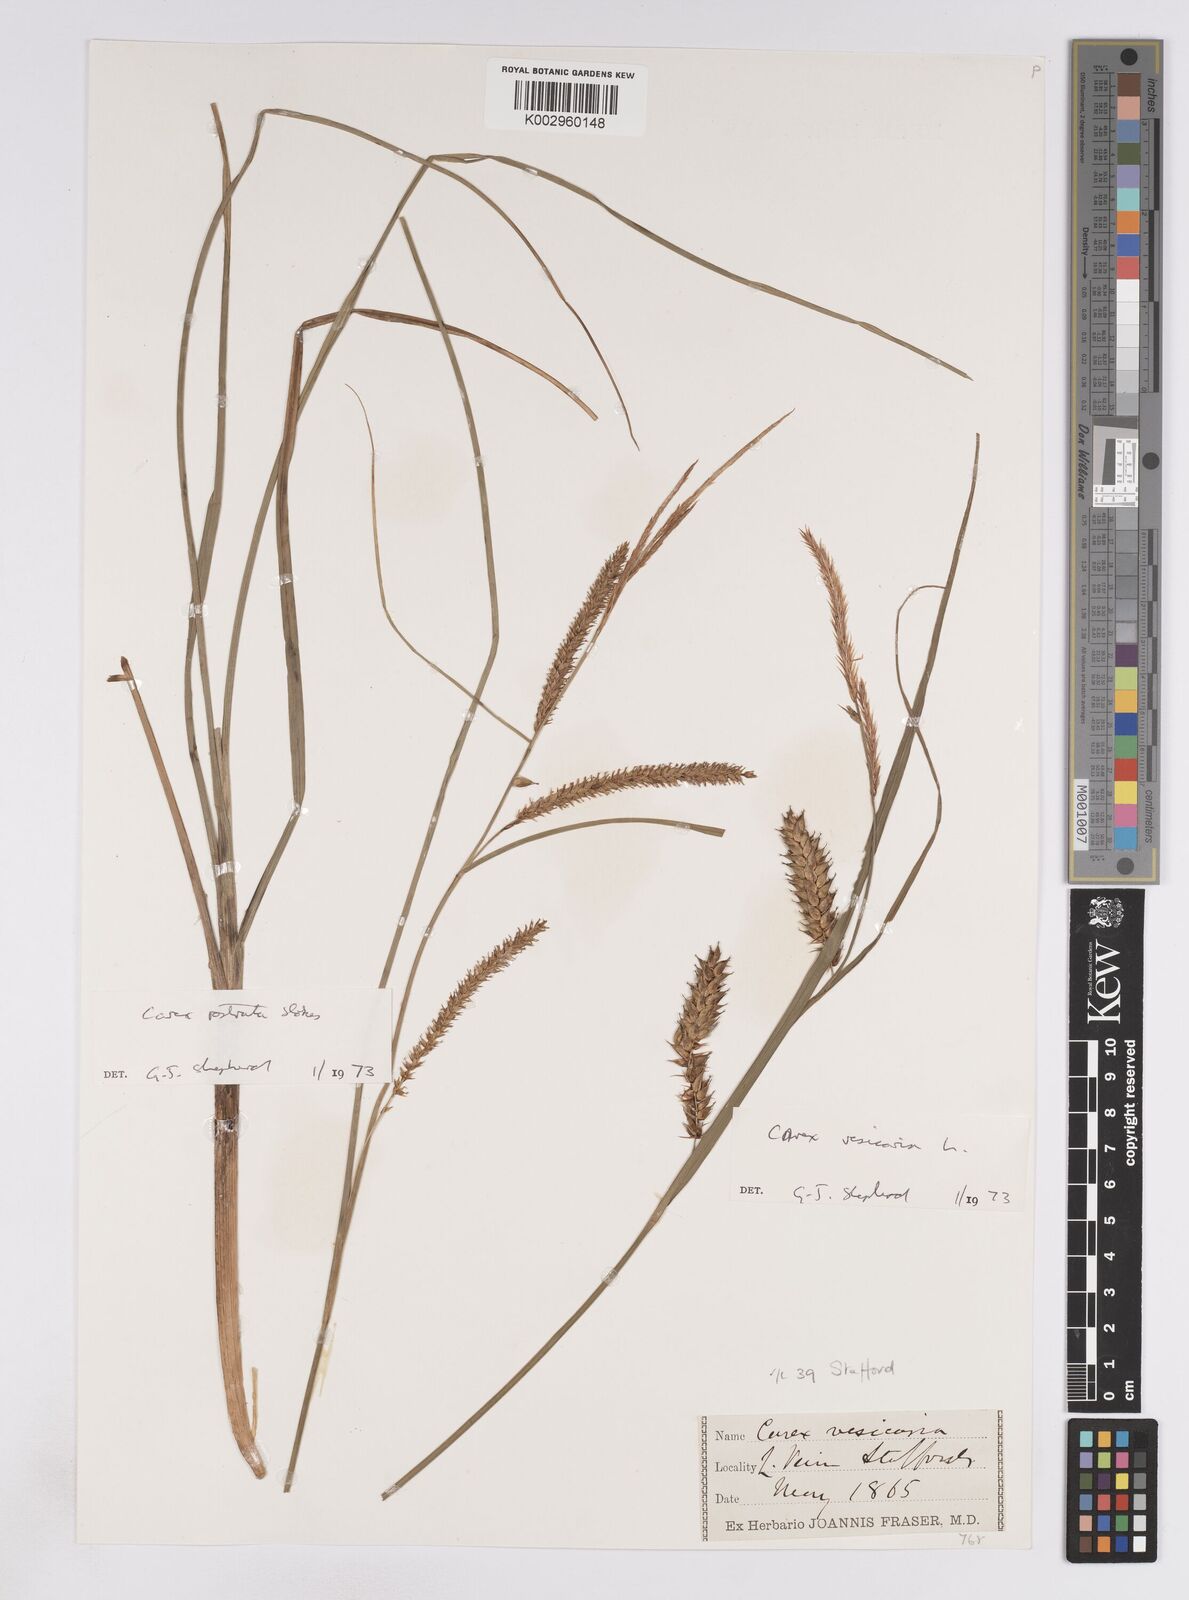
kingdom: Plantae
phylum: Tracheophyta
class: Liliopsida
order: Poales
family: Cyperaceae
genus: Carex
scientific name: Carex vesicaria
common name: Bladder-sedge
